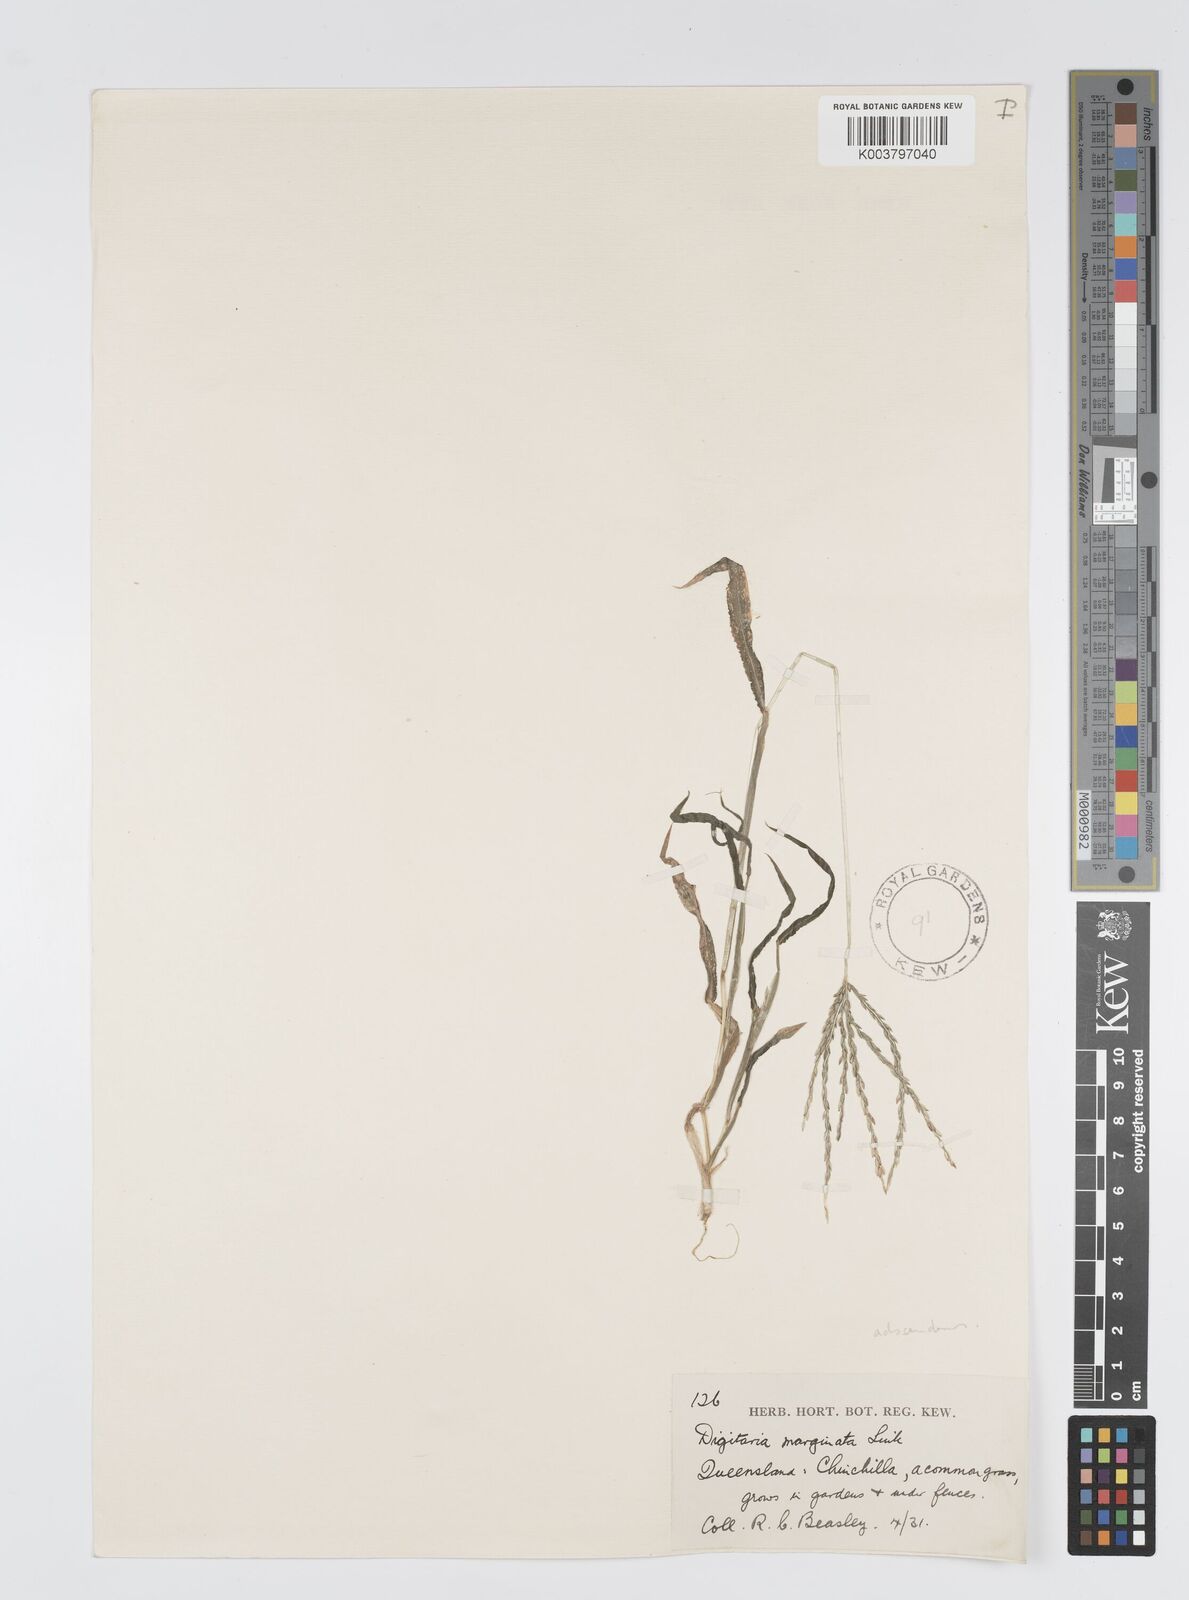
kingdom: Plantae
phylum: Tracheophyta
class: Liliopsida
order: Poales
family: Poaceae
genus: Digitaria
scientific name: Digitaria ciliaris
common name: Tropical finger-grass
